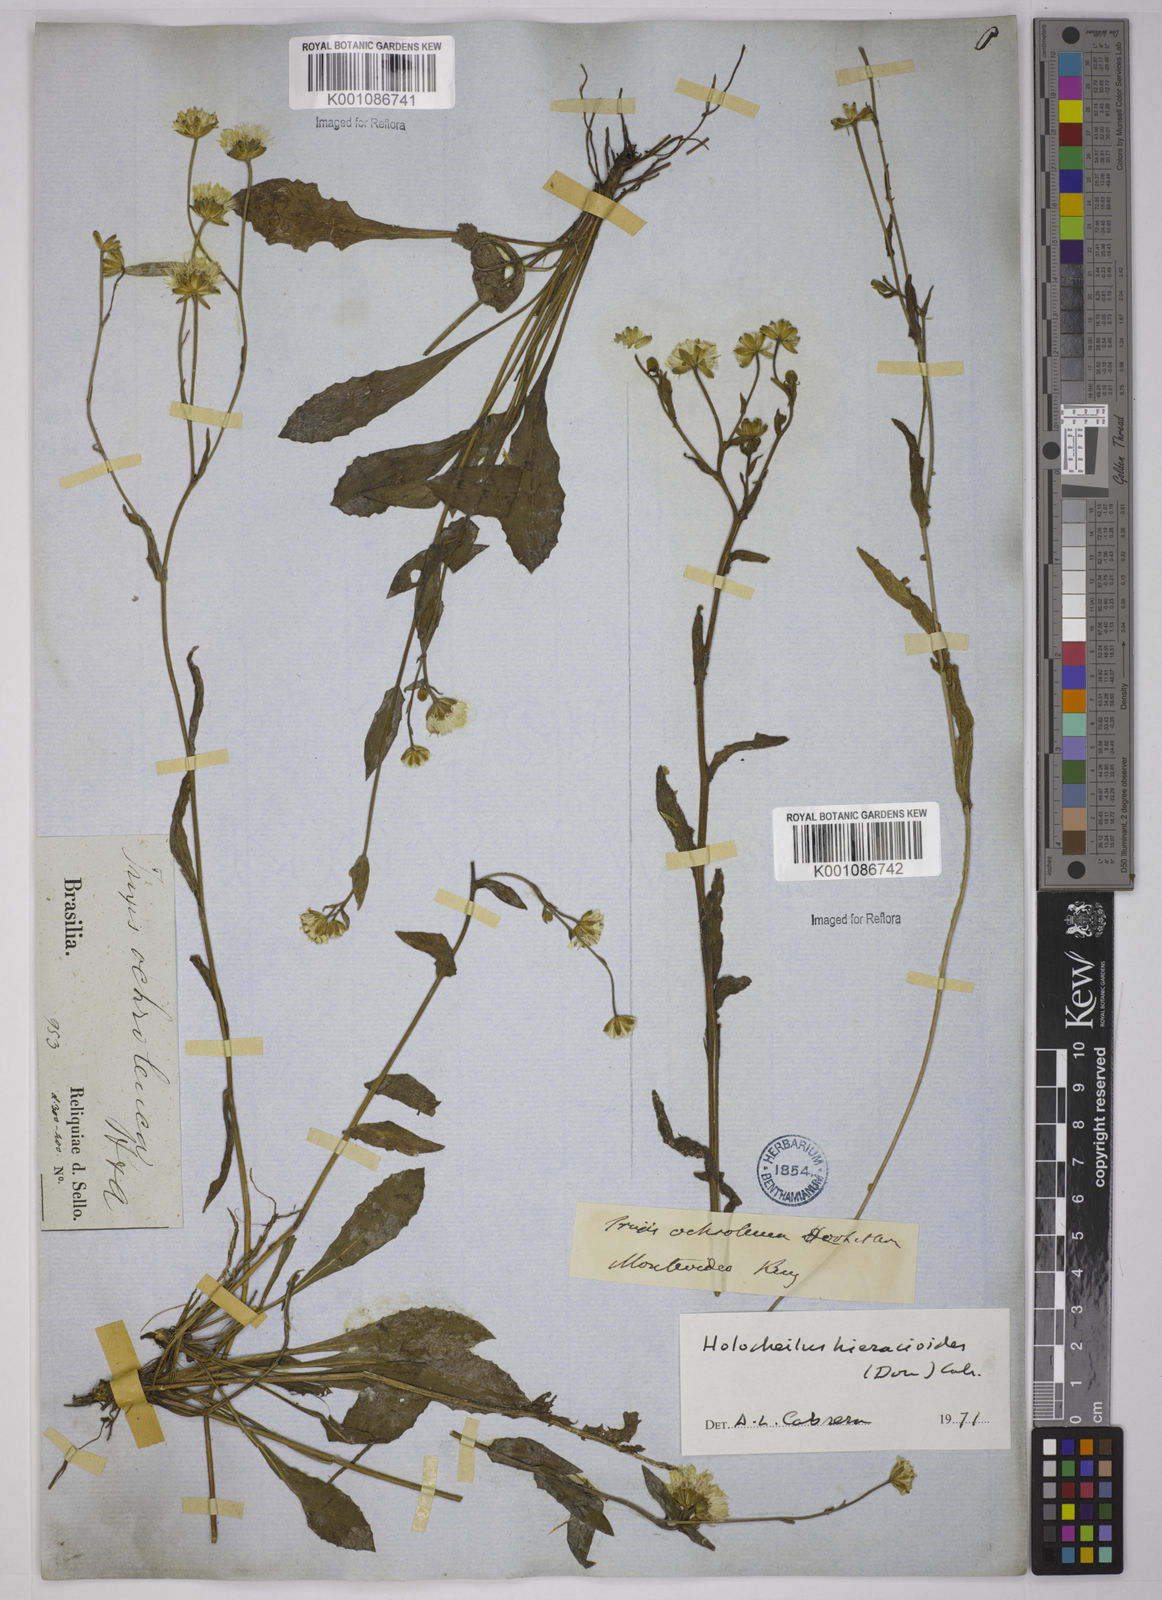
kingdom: Plantae
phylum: Tracheophyta
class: Magnoliopsida
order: Asterales
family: Asteraceae
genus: Holocheilus
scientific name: Holocheilus hieracioides
